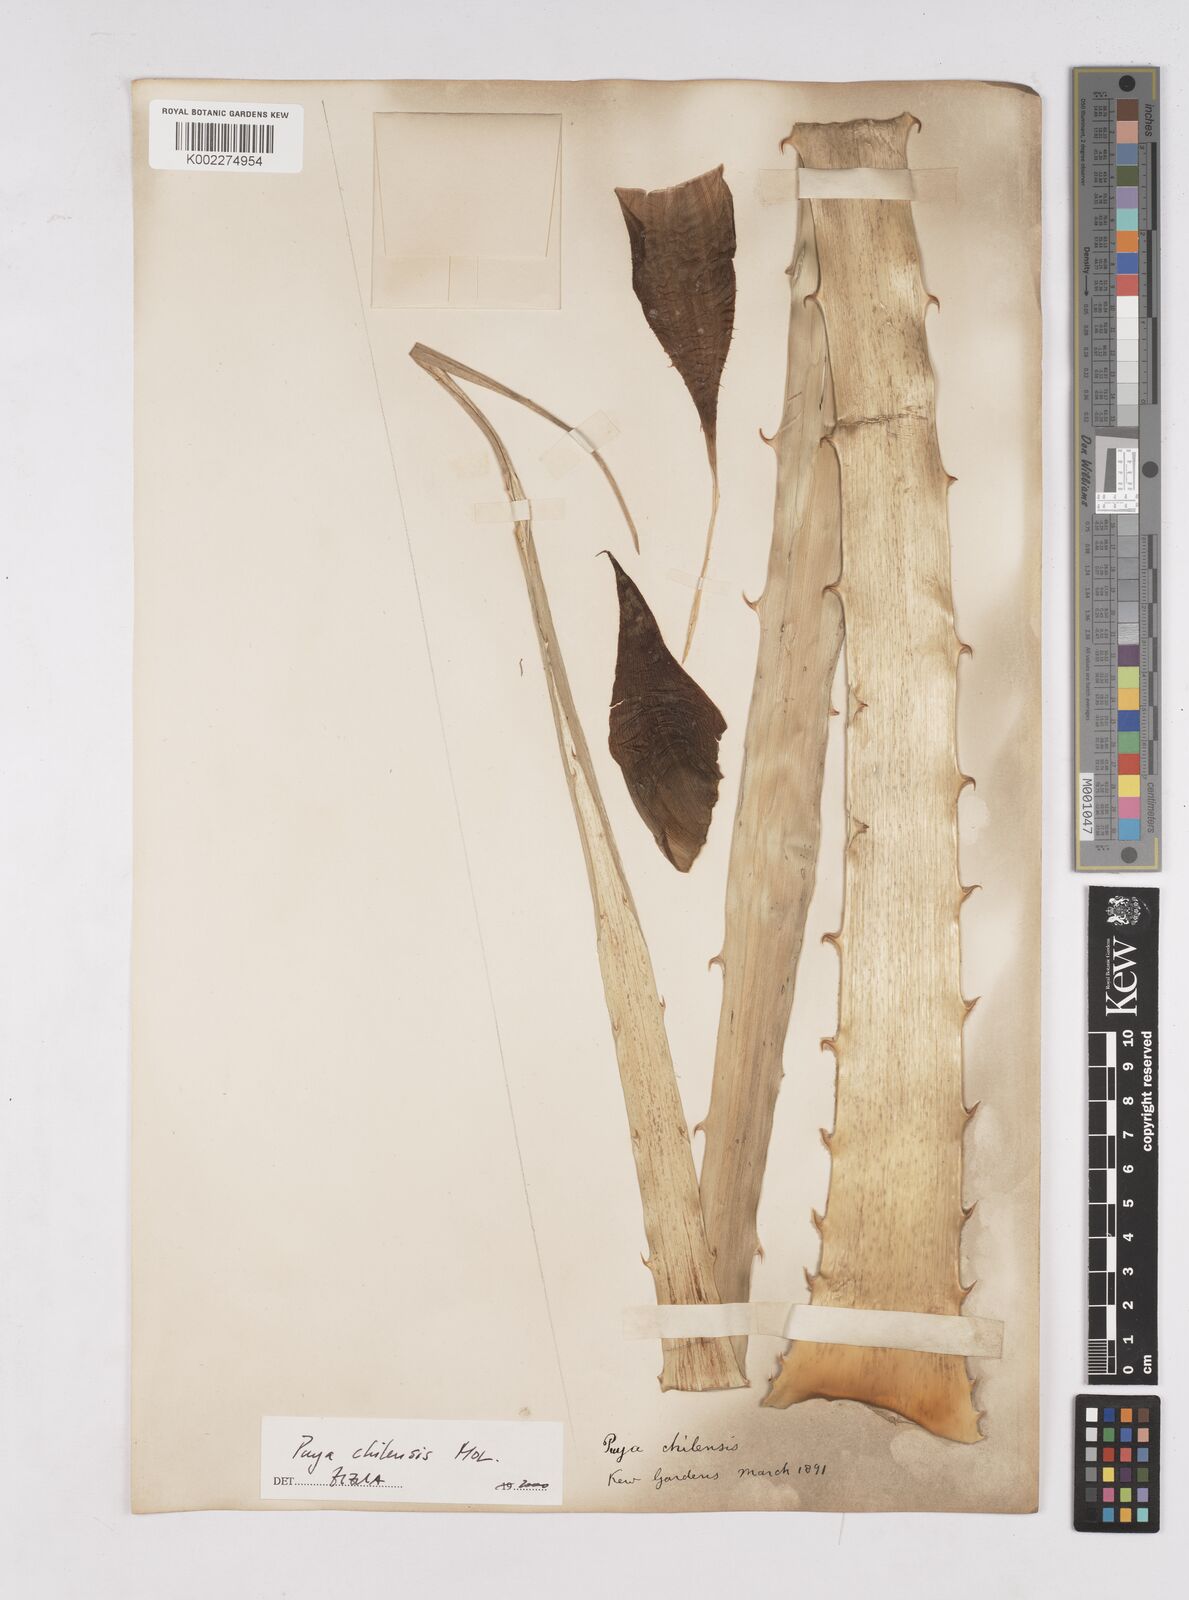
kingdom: Plantae
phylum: Tracheophyta
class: Liliopsida
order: Poales
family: Bromeliaceae
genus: Puya
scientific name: Puya chilensis
